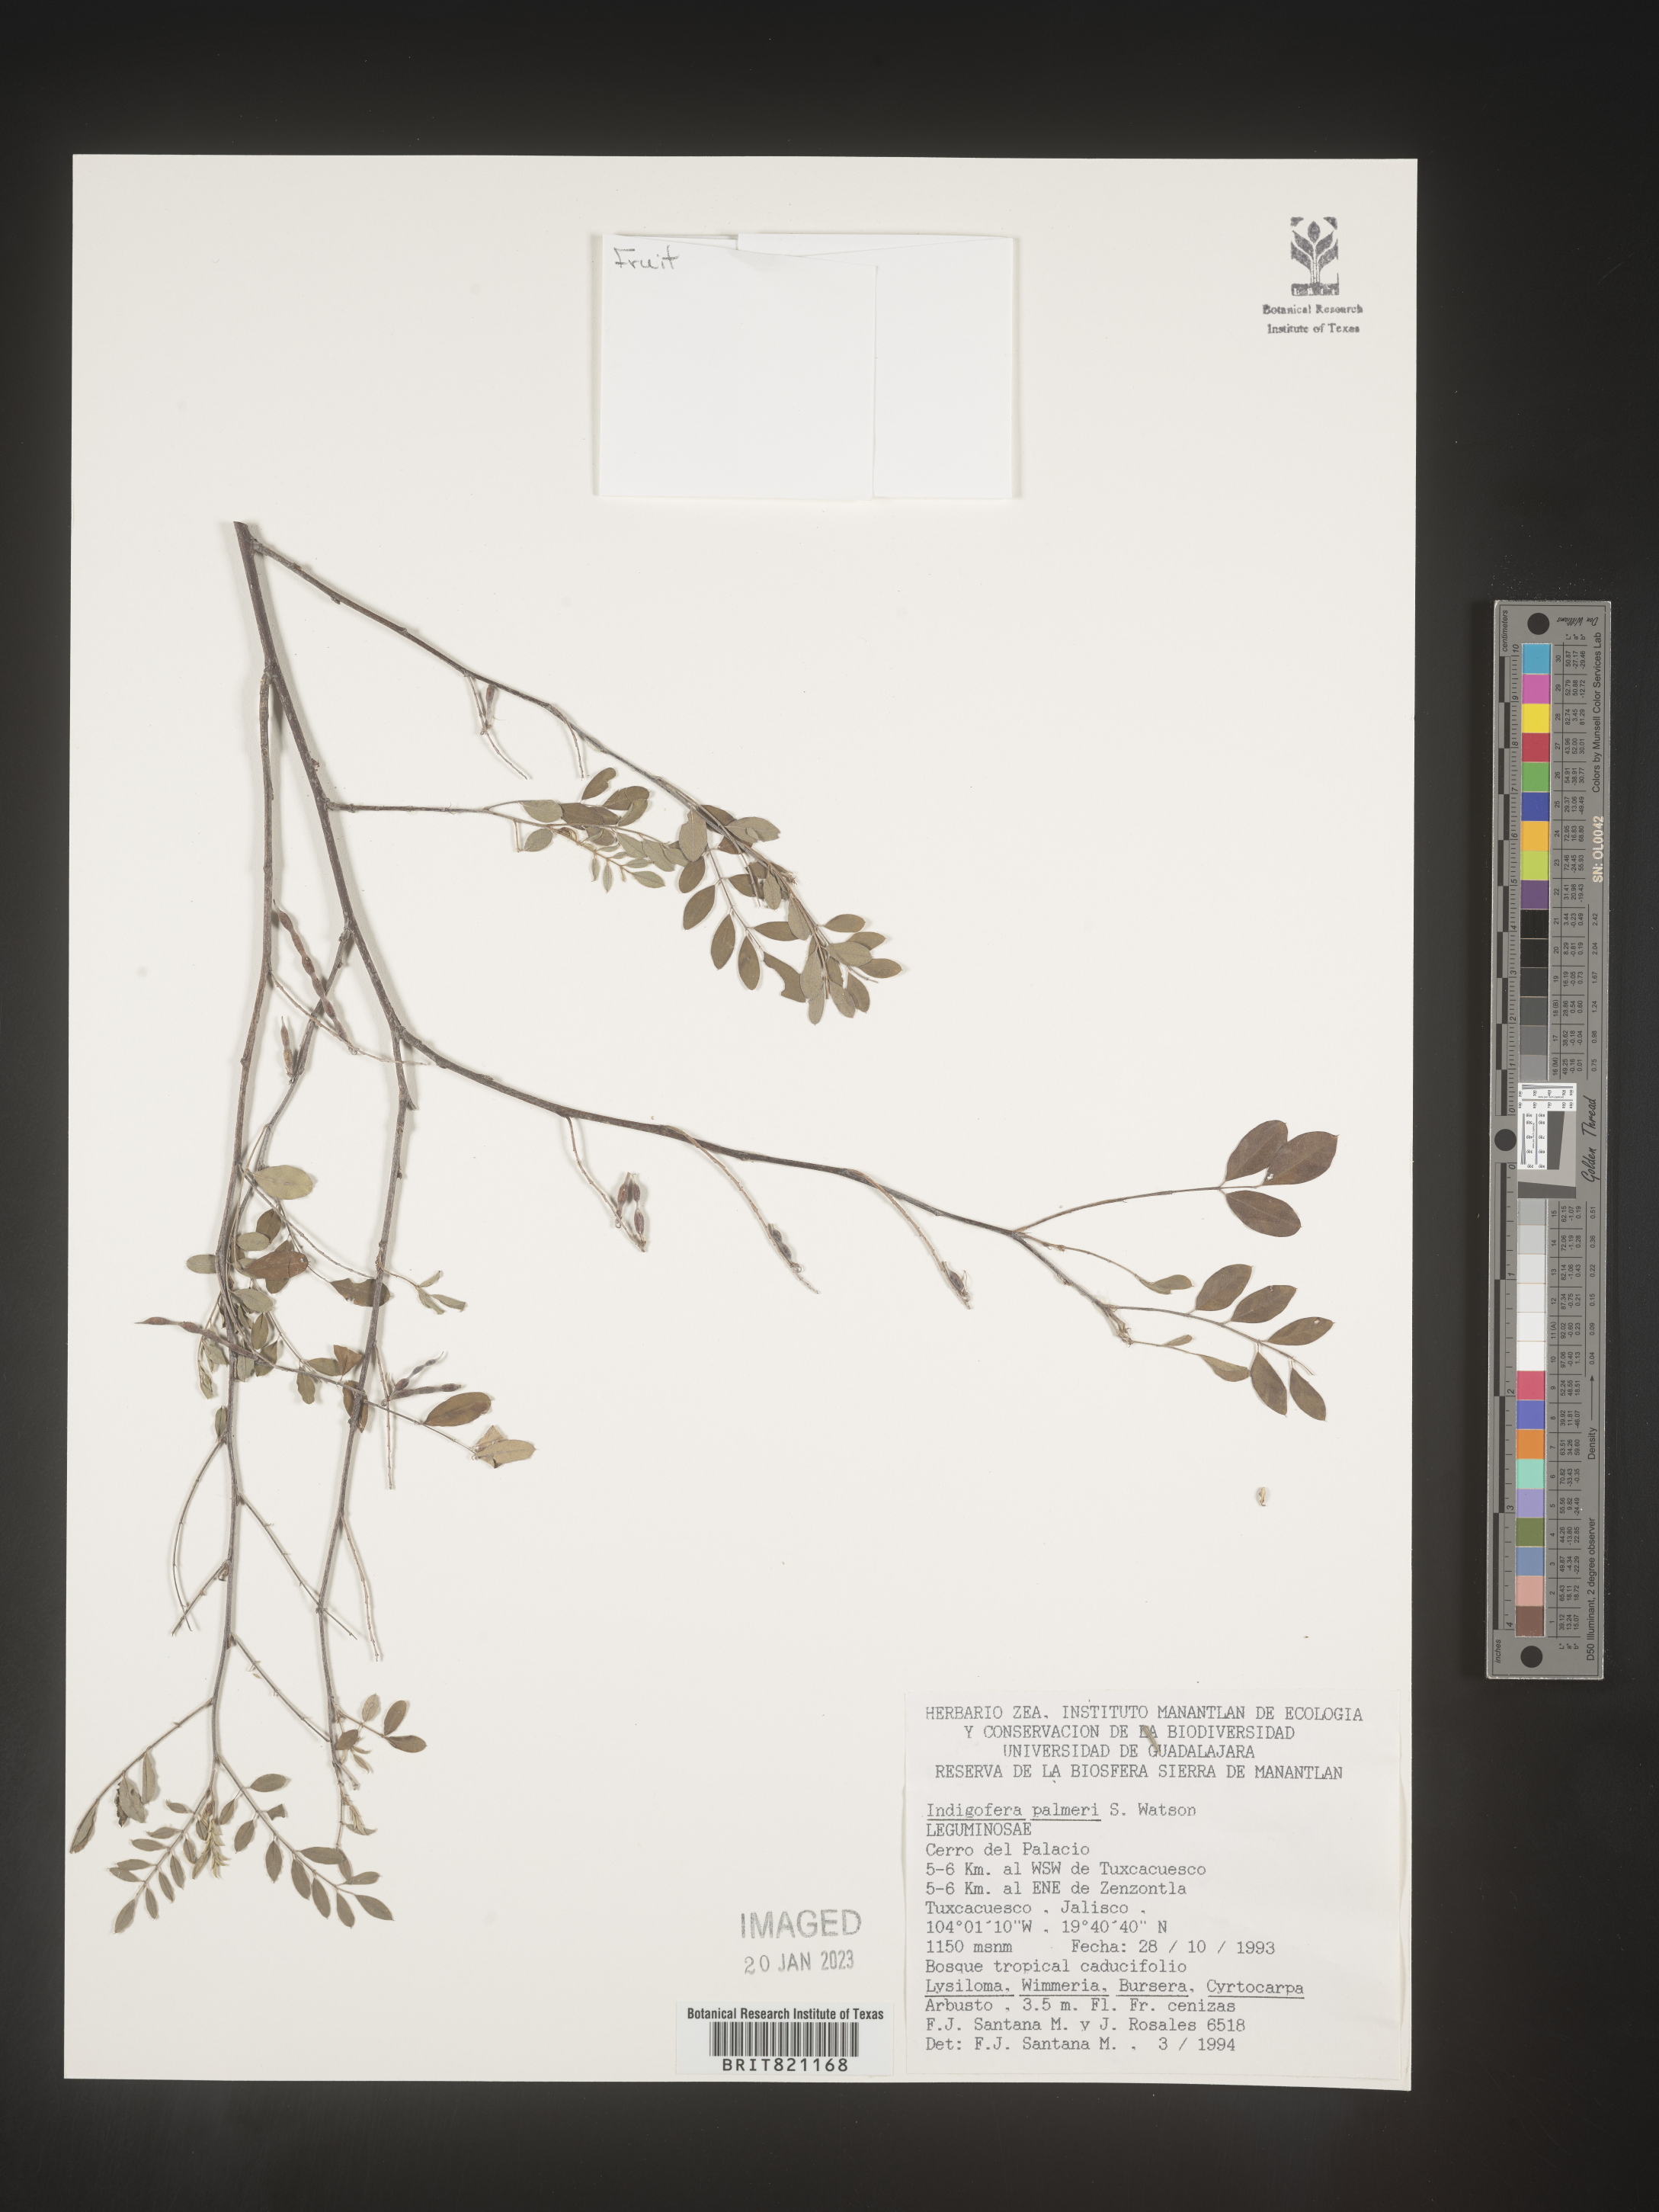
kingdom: Plantae
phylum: Tracheophyta
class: Magnoliopsida
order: Fabales
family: Fabaceae
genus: Indigofera
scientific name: Indigofera
